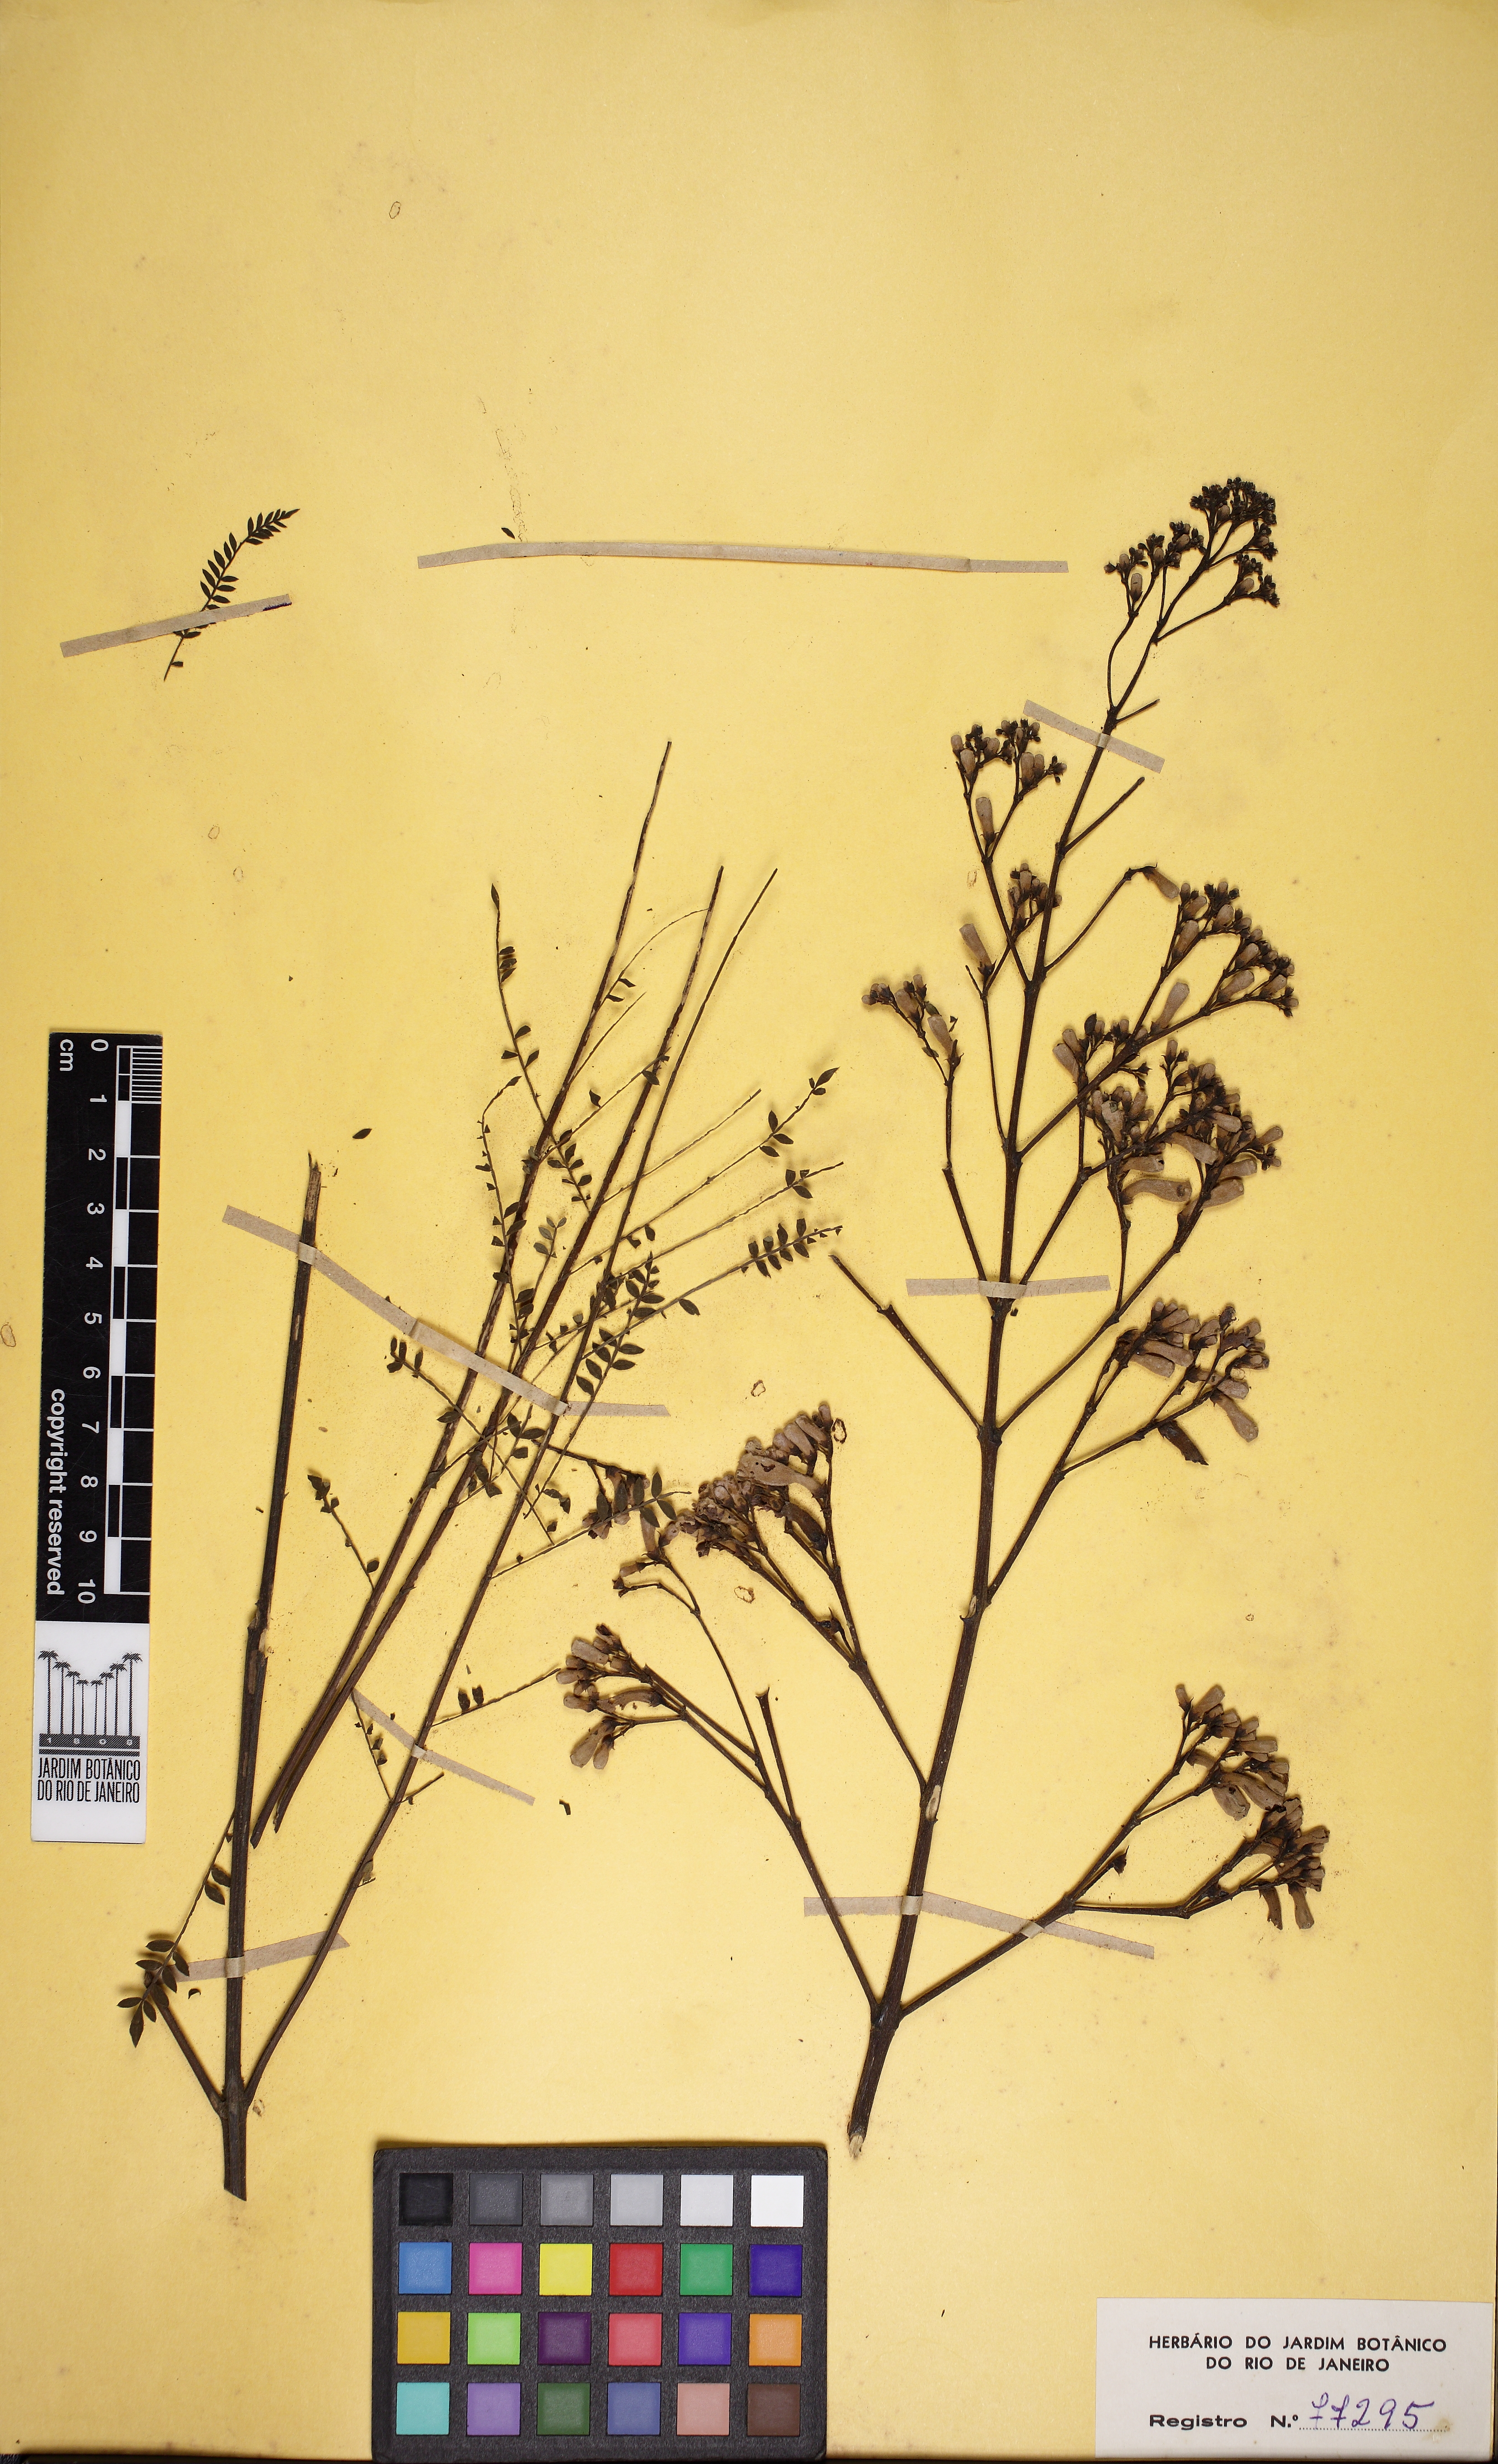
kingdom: Plantae
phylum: Tracheophyta
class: Magnoliopsida
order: Lamiales
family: Bignoniaceae
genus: Jacaranda
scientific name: Jacaranda acutifolia
